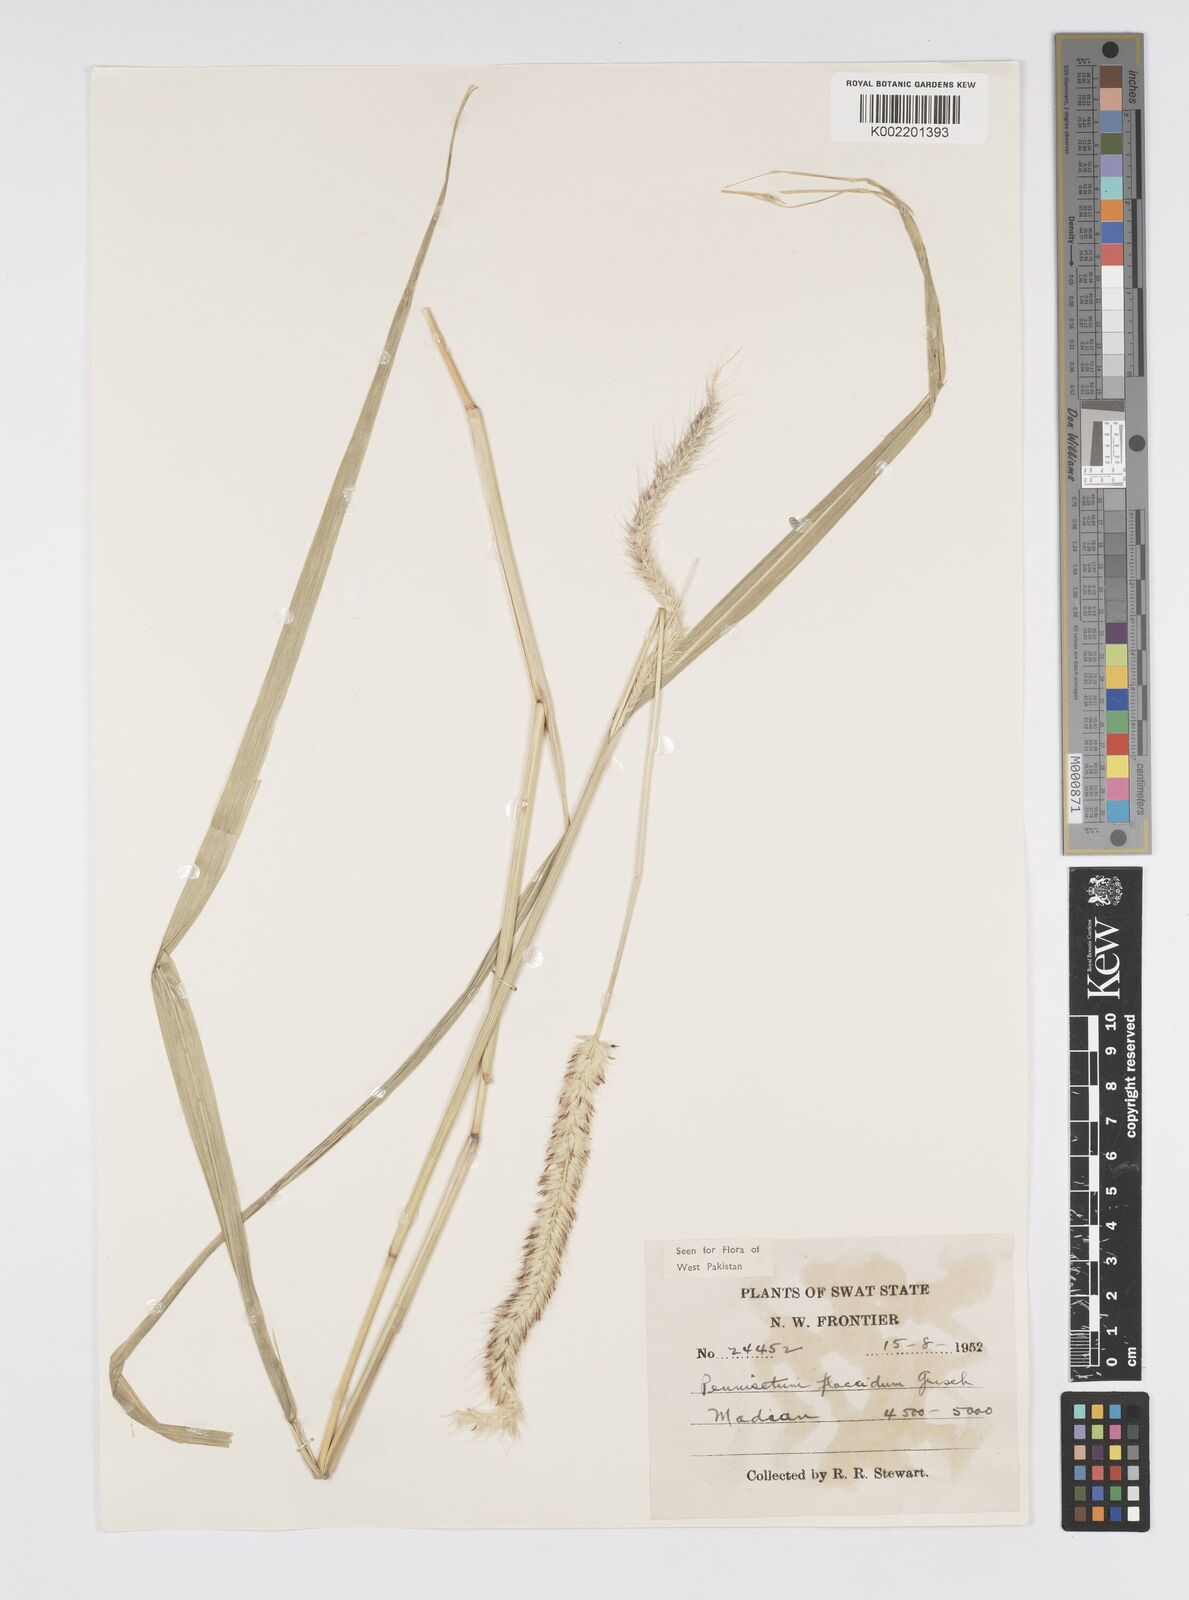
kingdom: Plantae
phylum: Tracheophyta
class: Liliopsida
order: Poales
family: Poaceae
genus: Cenchrus
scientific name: Cenchrus flaccidus
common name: Flaccid grass
